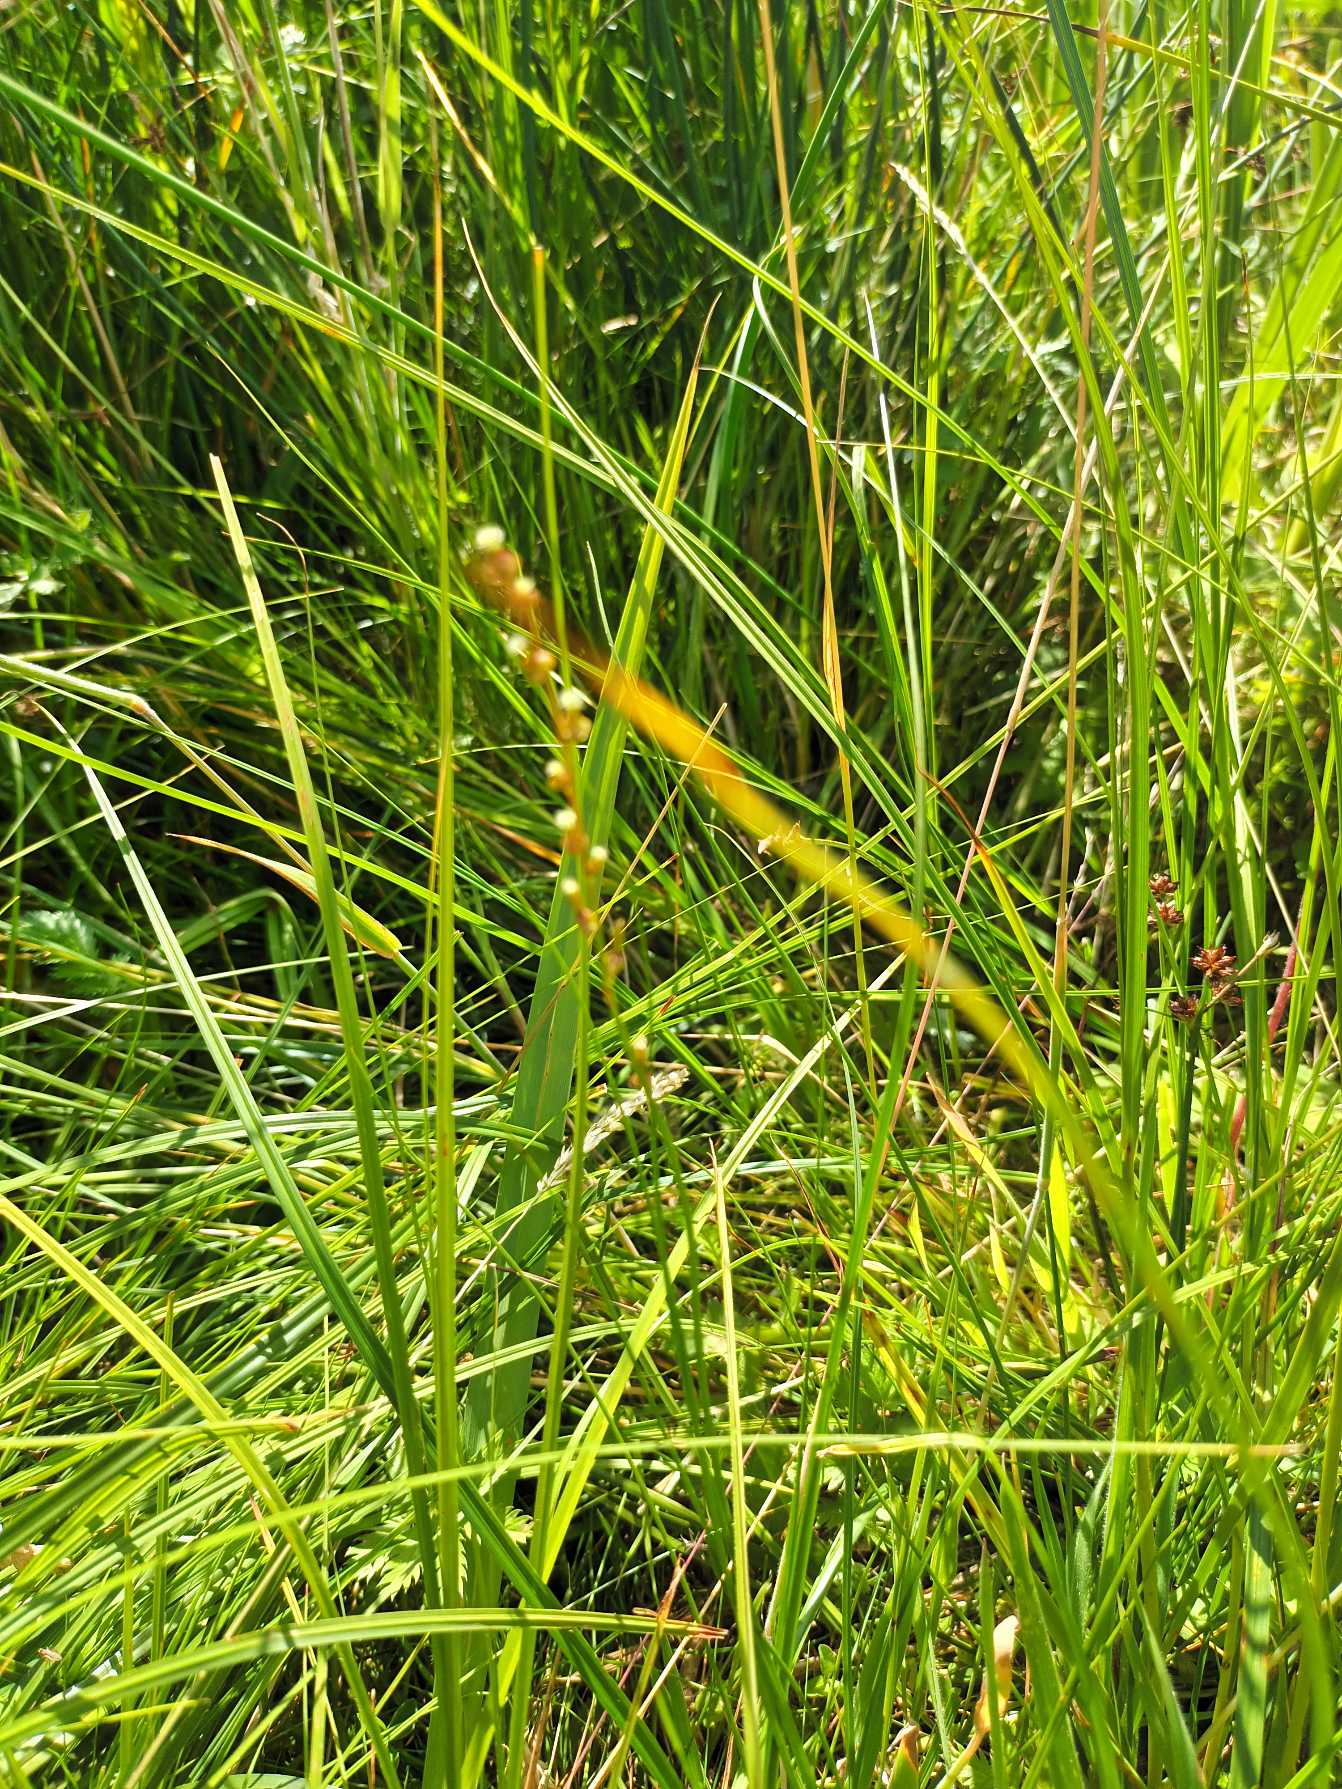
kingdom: Plantae
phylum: Tracheophyta
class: Liliopsida
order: Alismatales
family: Juncaginaceae
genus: Triglochin
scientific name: Triglochin palustris
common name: Kær-trehage
